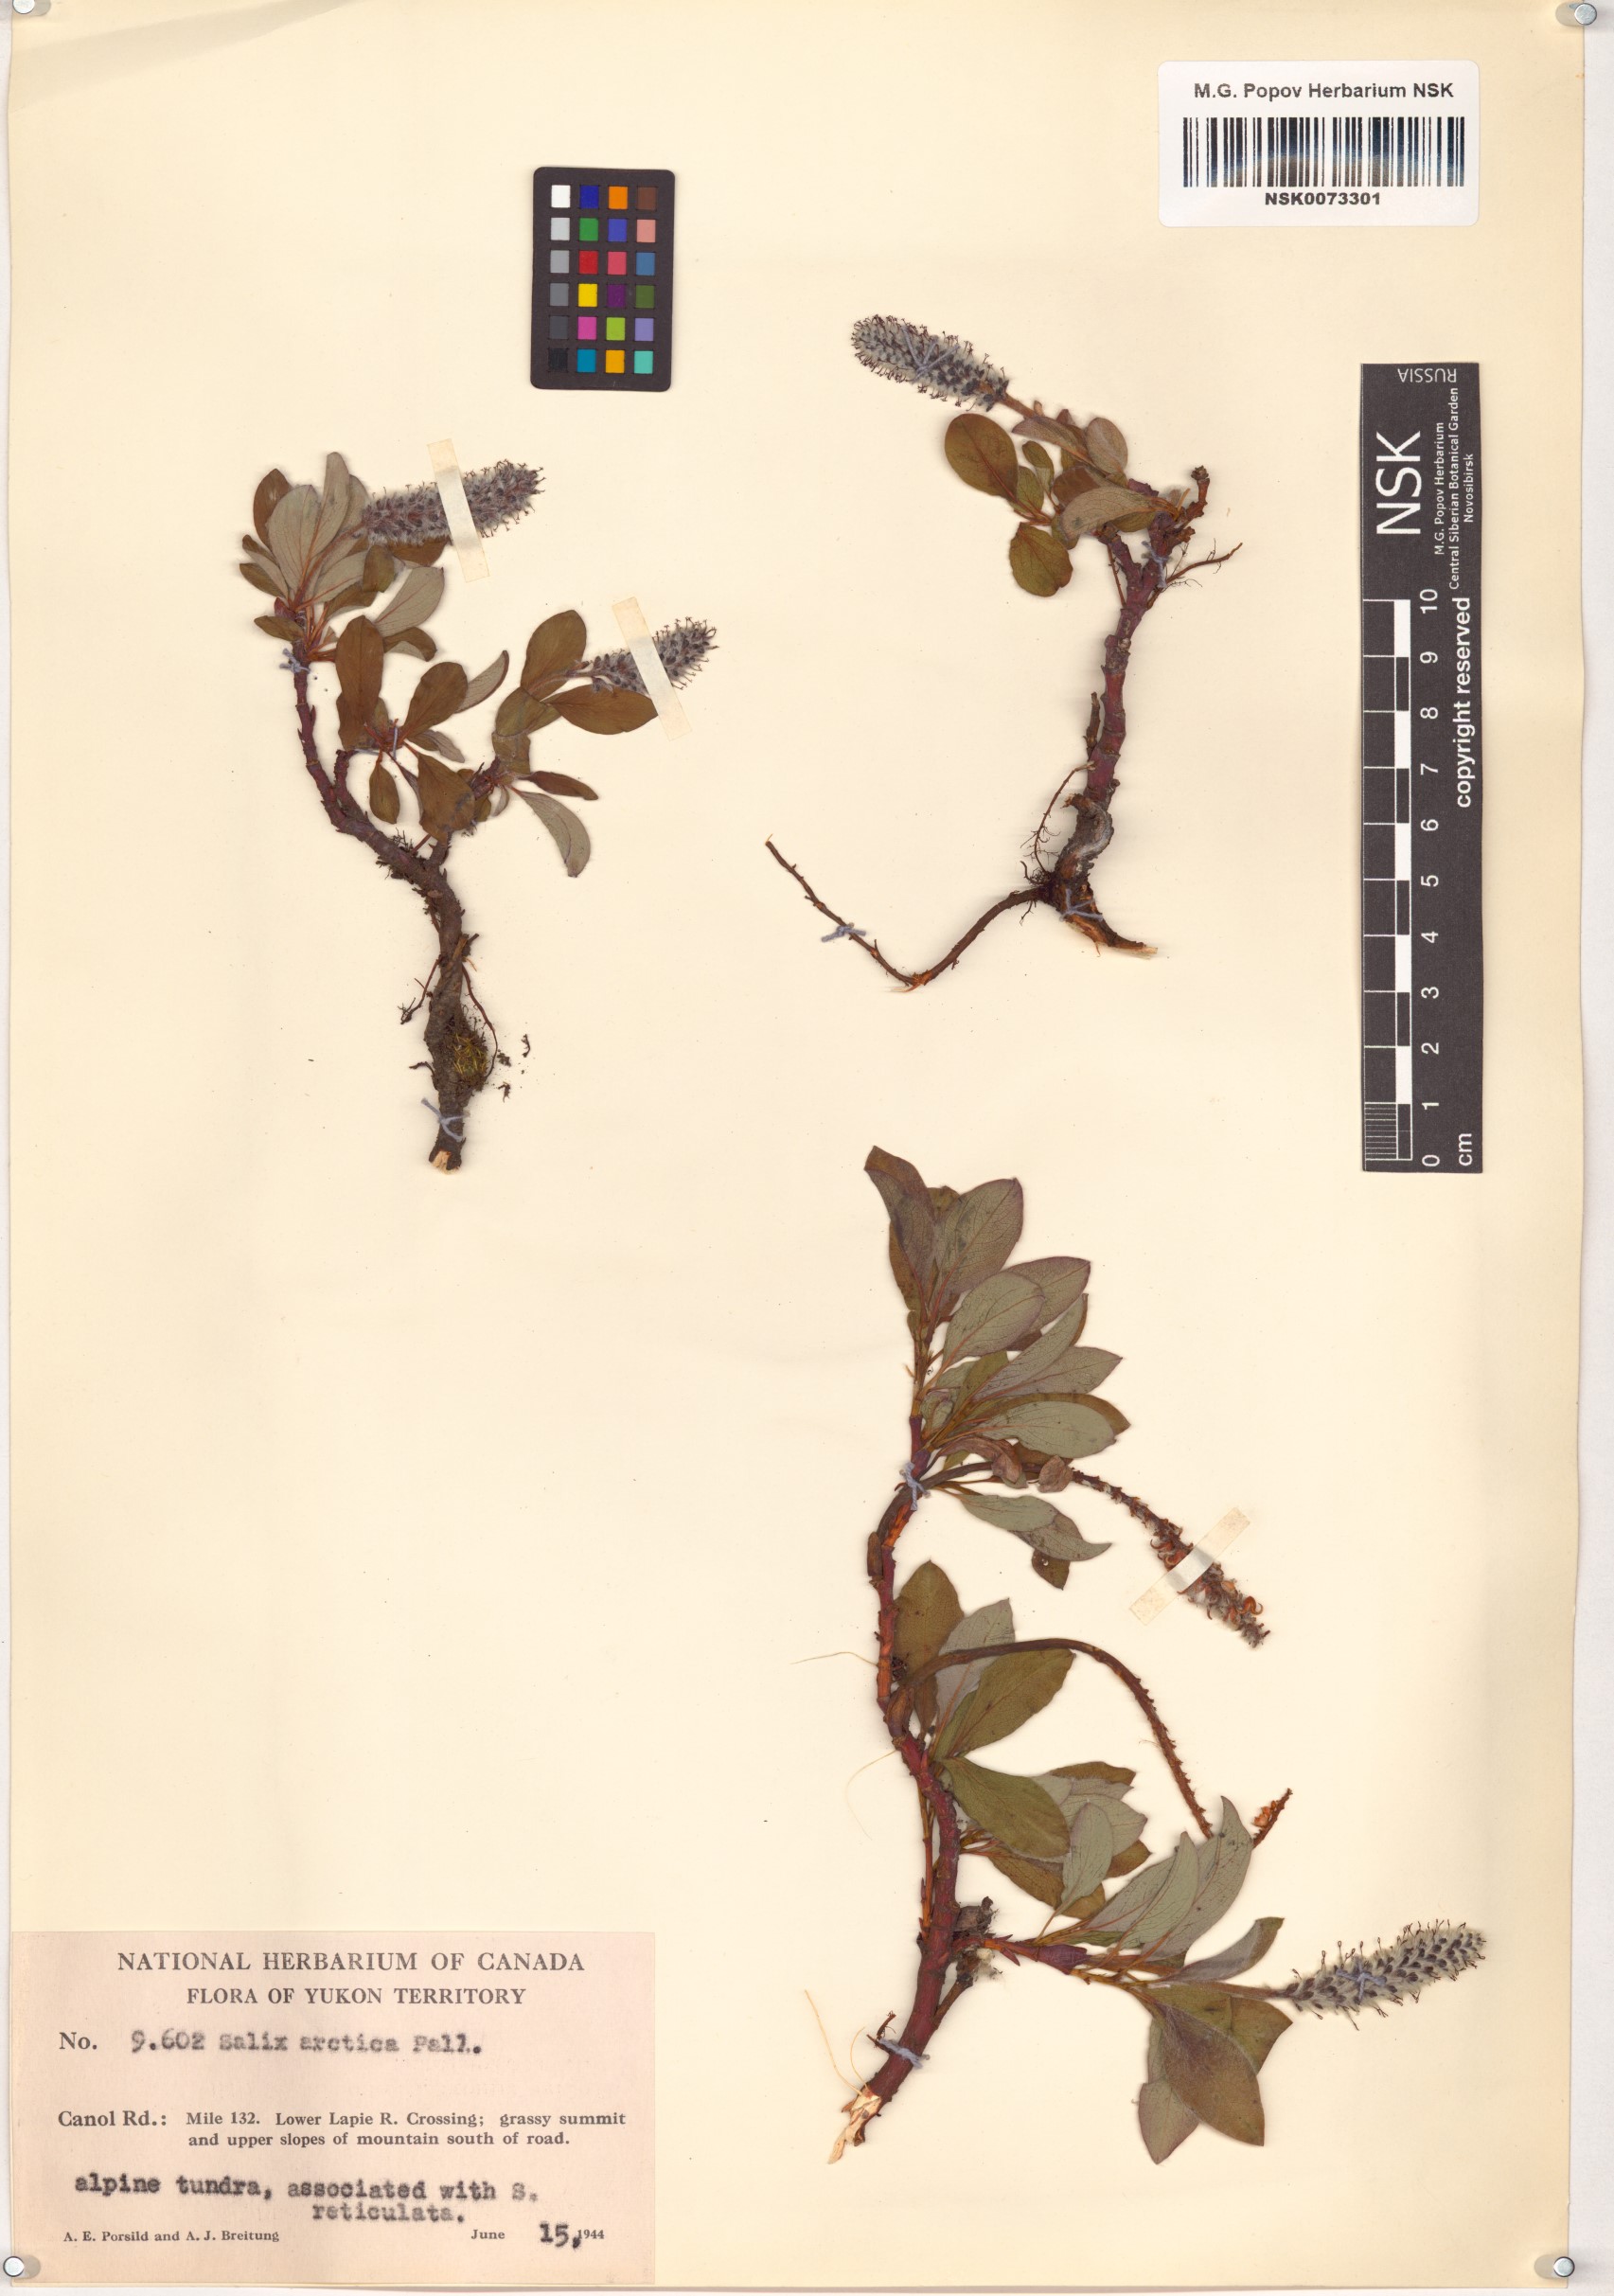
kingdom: Plantae
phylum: Tracheophyta
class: Magnoliopsida
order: Malpighiales
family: Salicaceae
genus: Salix
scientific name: Salix arctica
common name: Arctic willow
